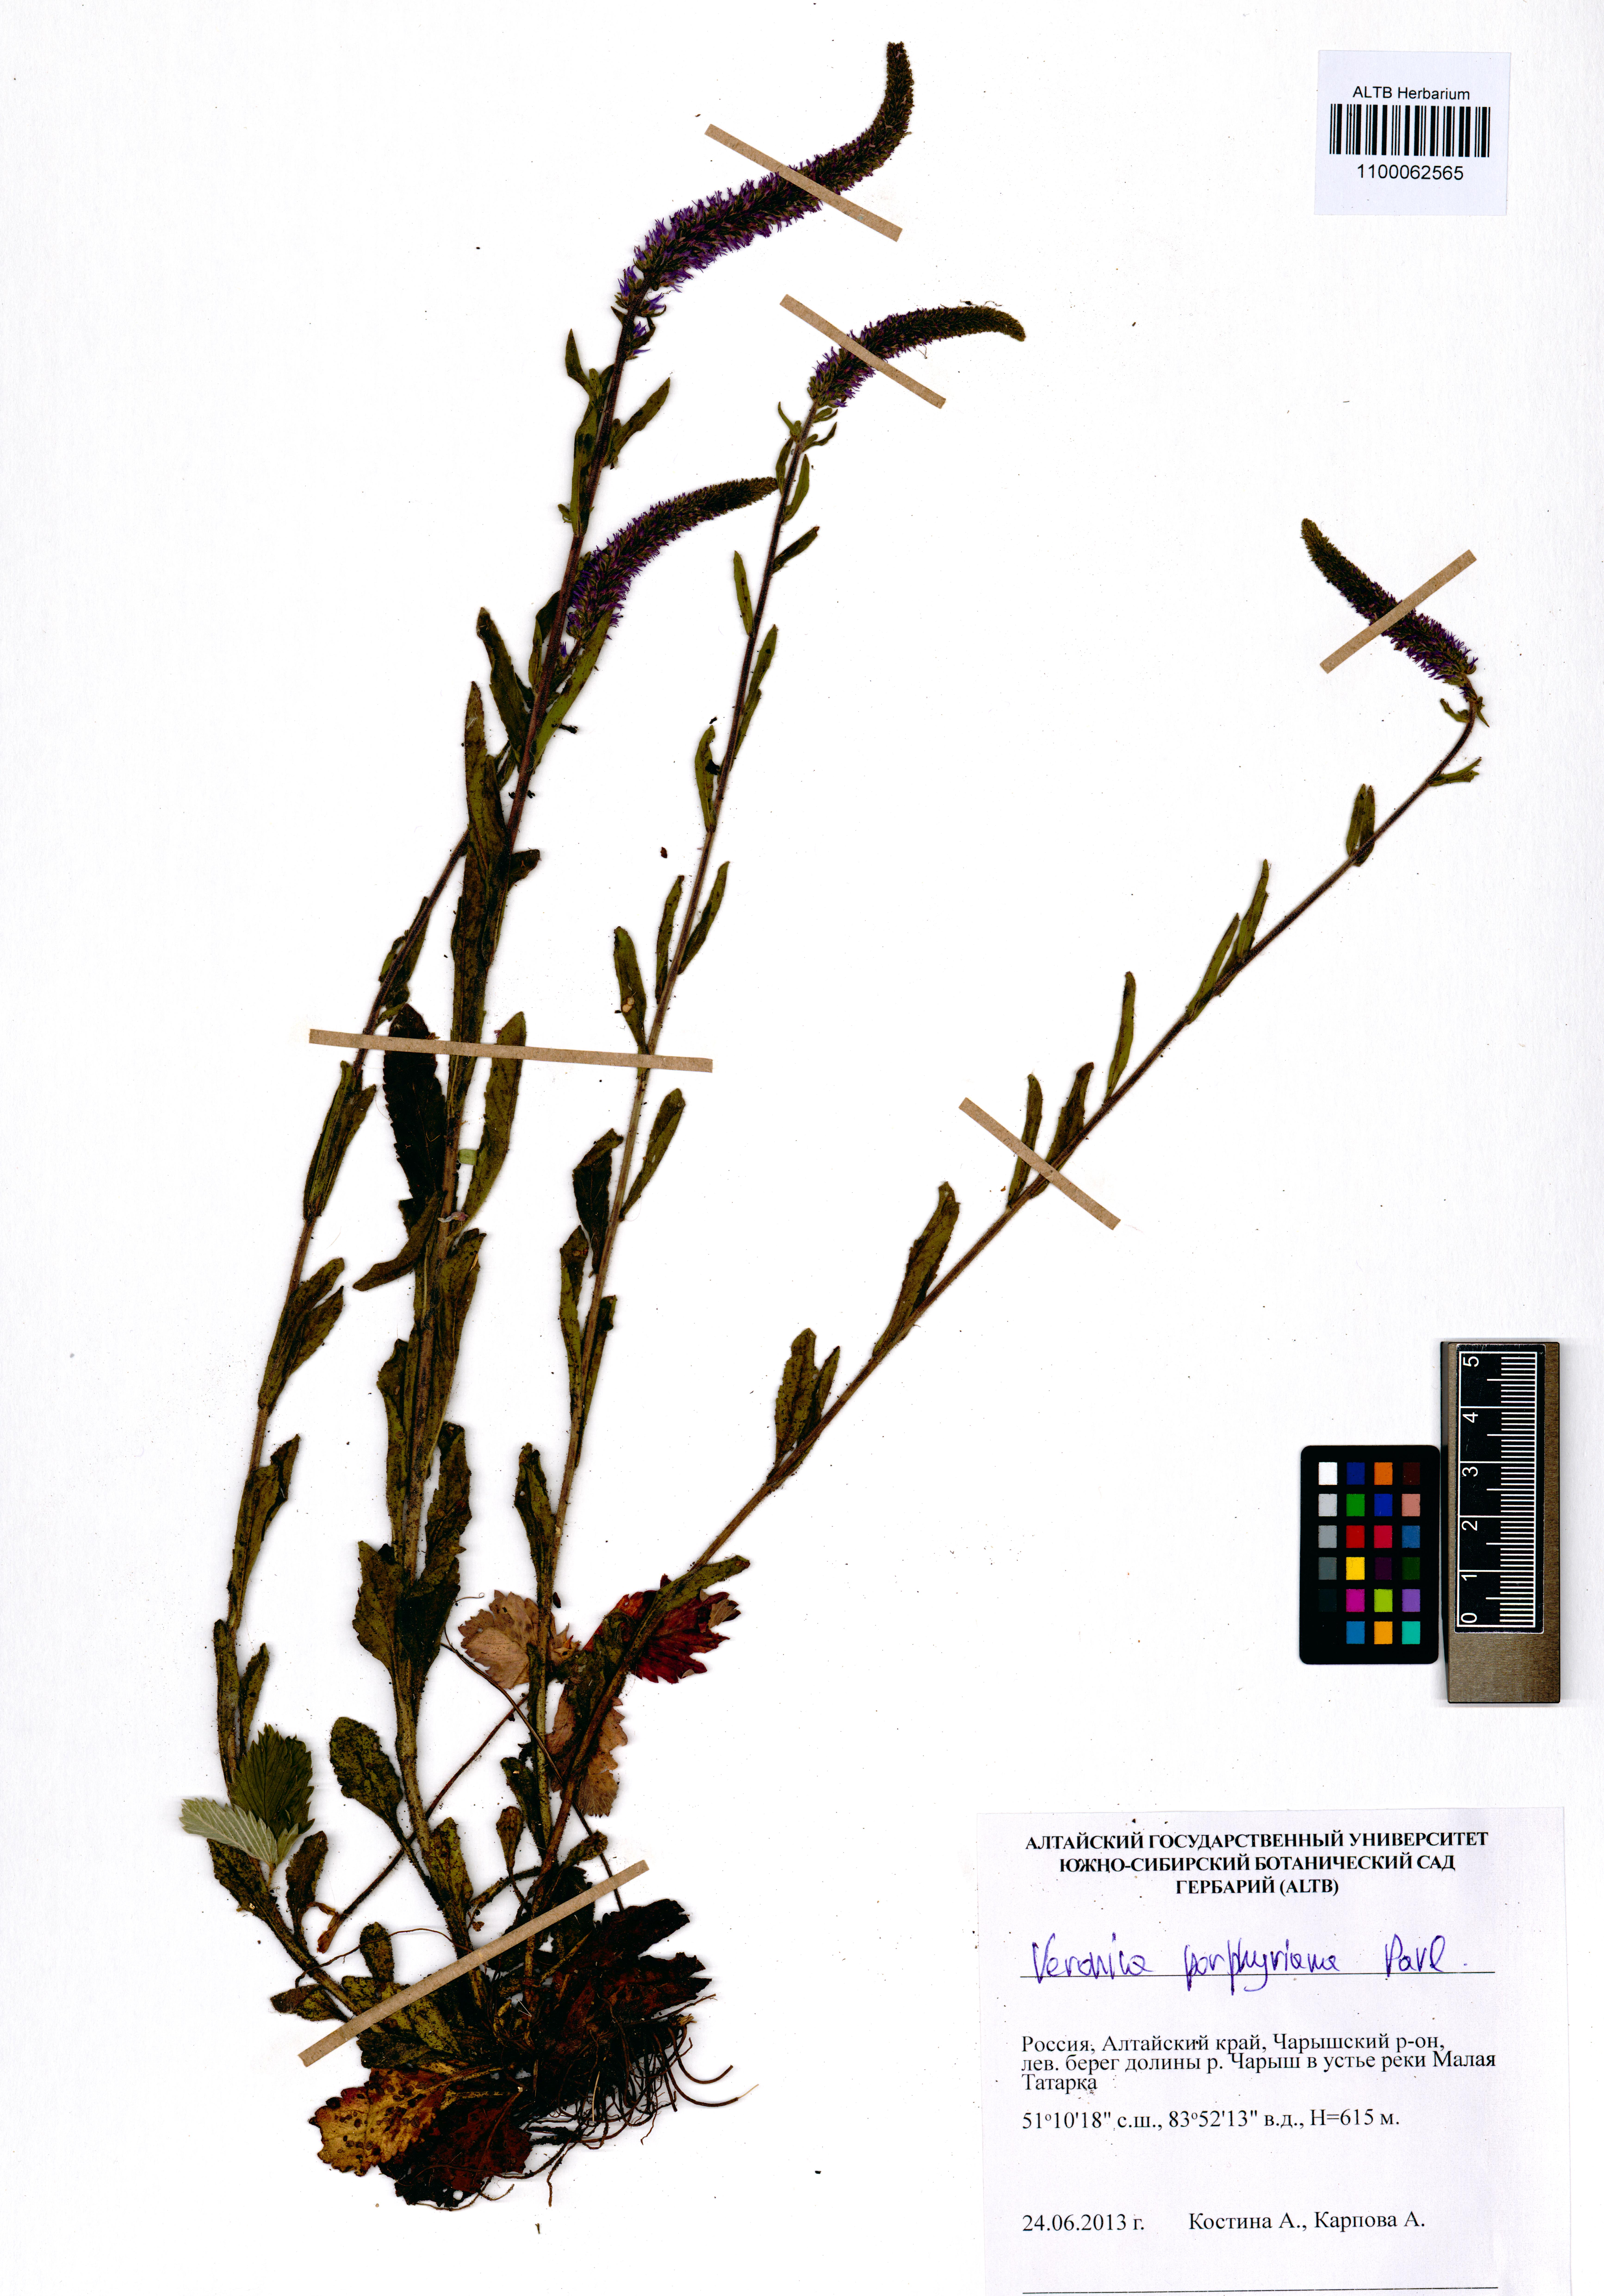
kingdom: Plantae
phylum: Tracheophyta
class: Magnoliopsida
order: Lamiales
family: Plantaginaceae
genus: Veronica
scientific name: Veronica porphyriana
